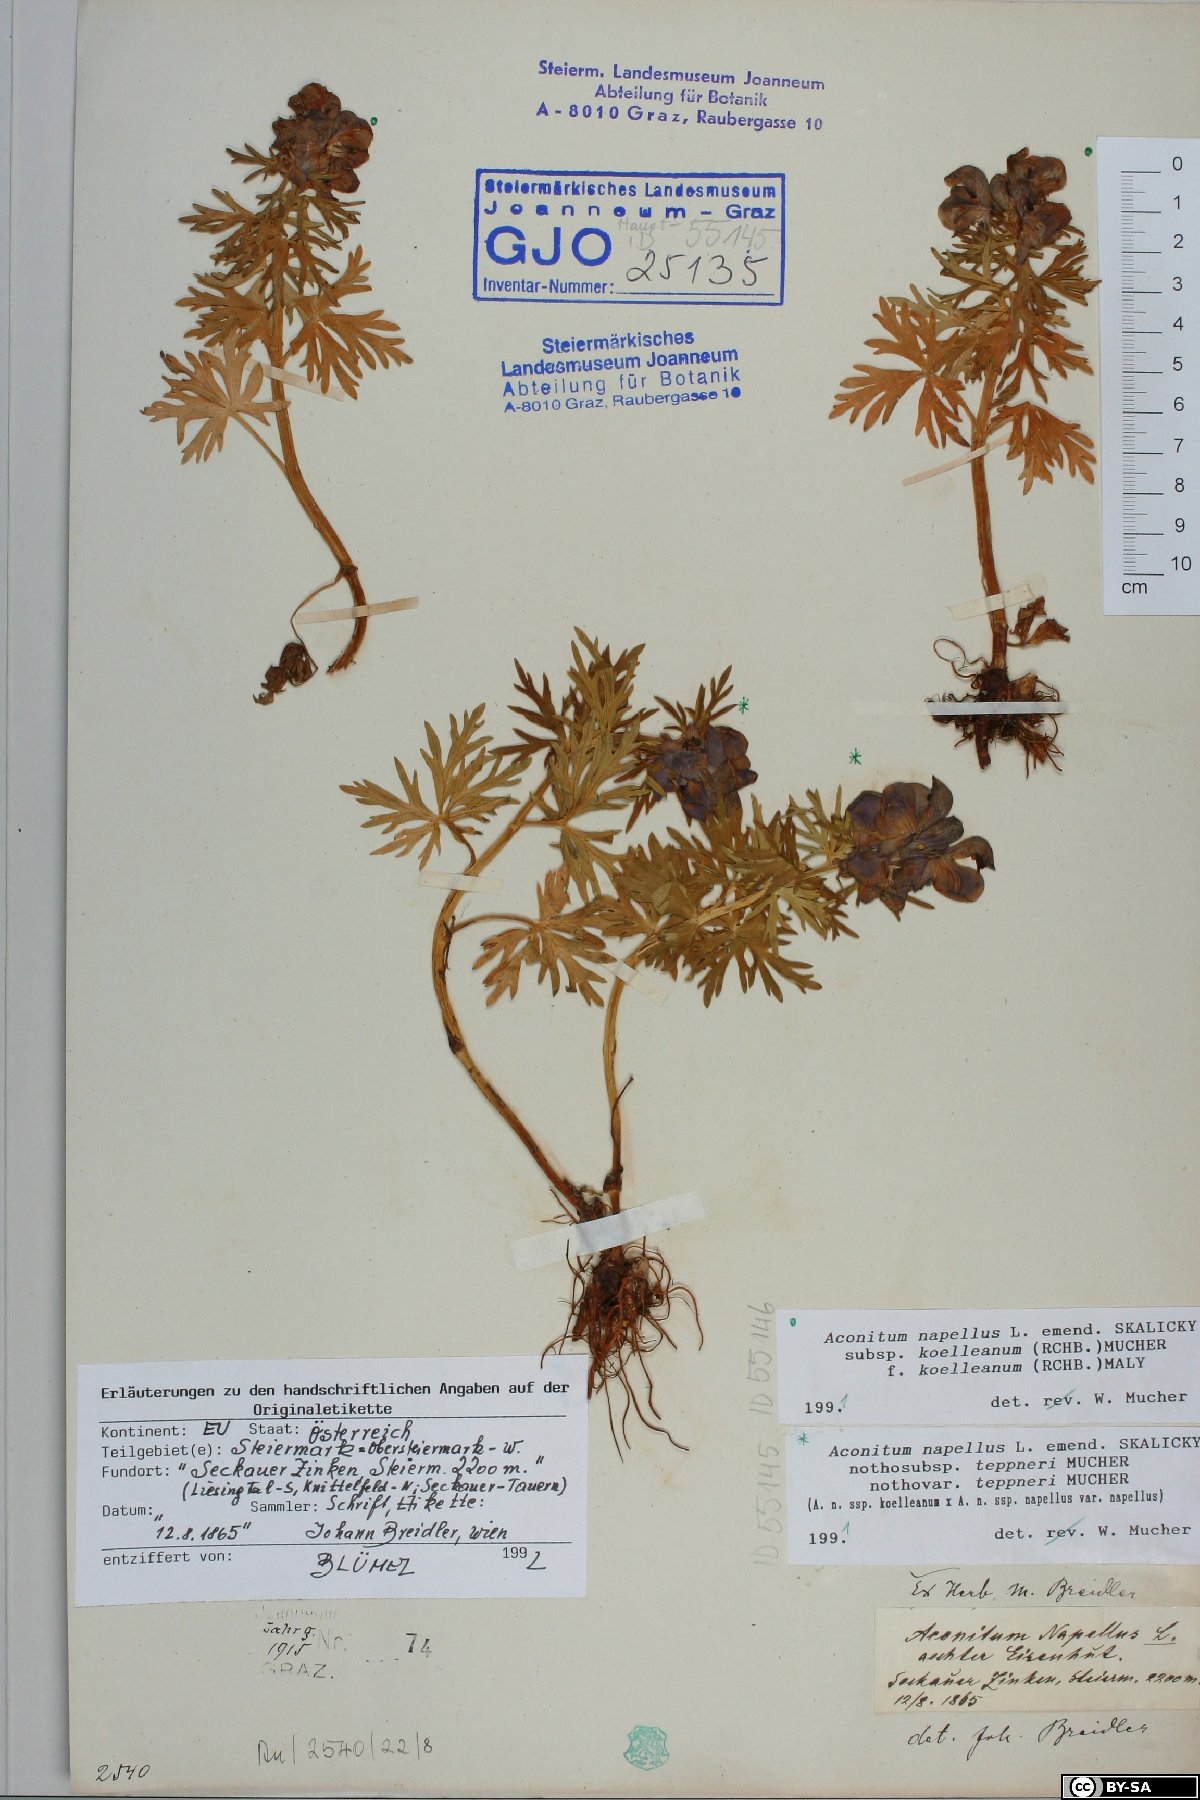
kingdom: Plantae
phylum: Tracheophyta
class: Magnoliopsida
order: Ranunculales
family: Ranunculaceae
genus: Aconitum
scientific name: Aconitum tauricum
